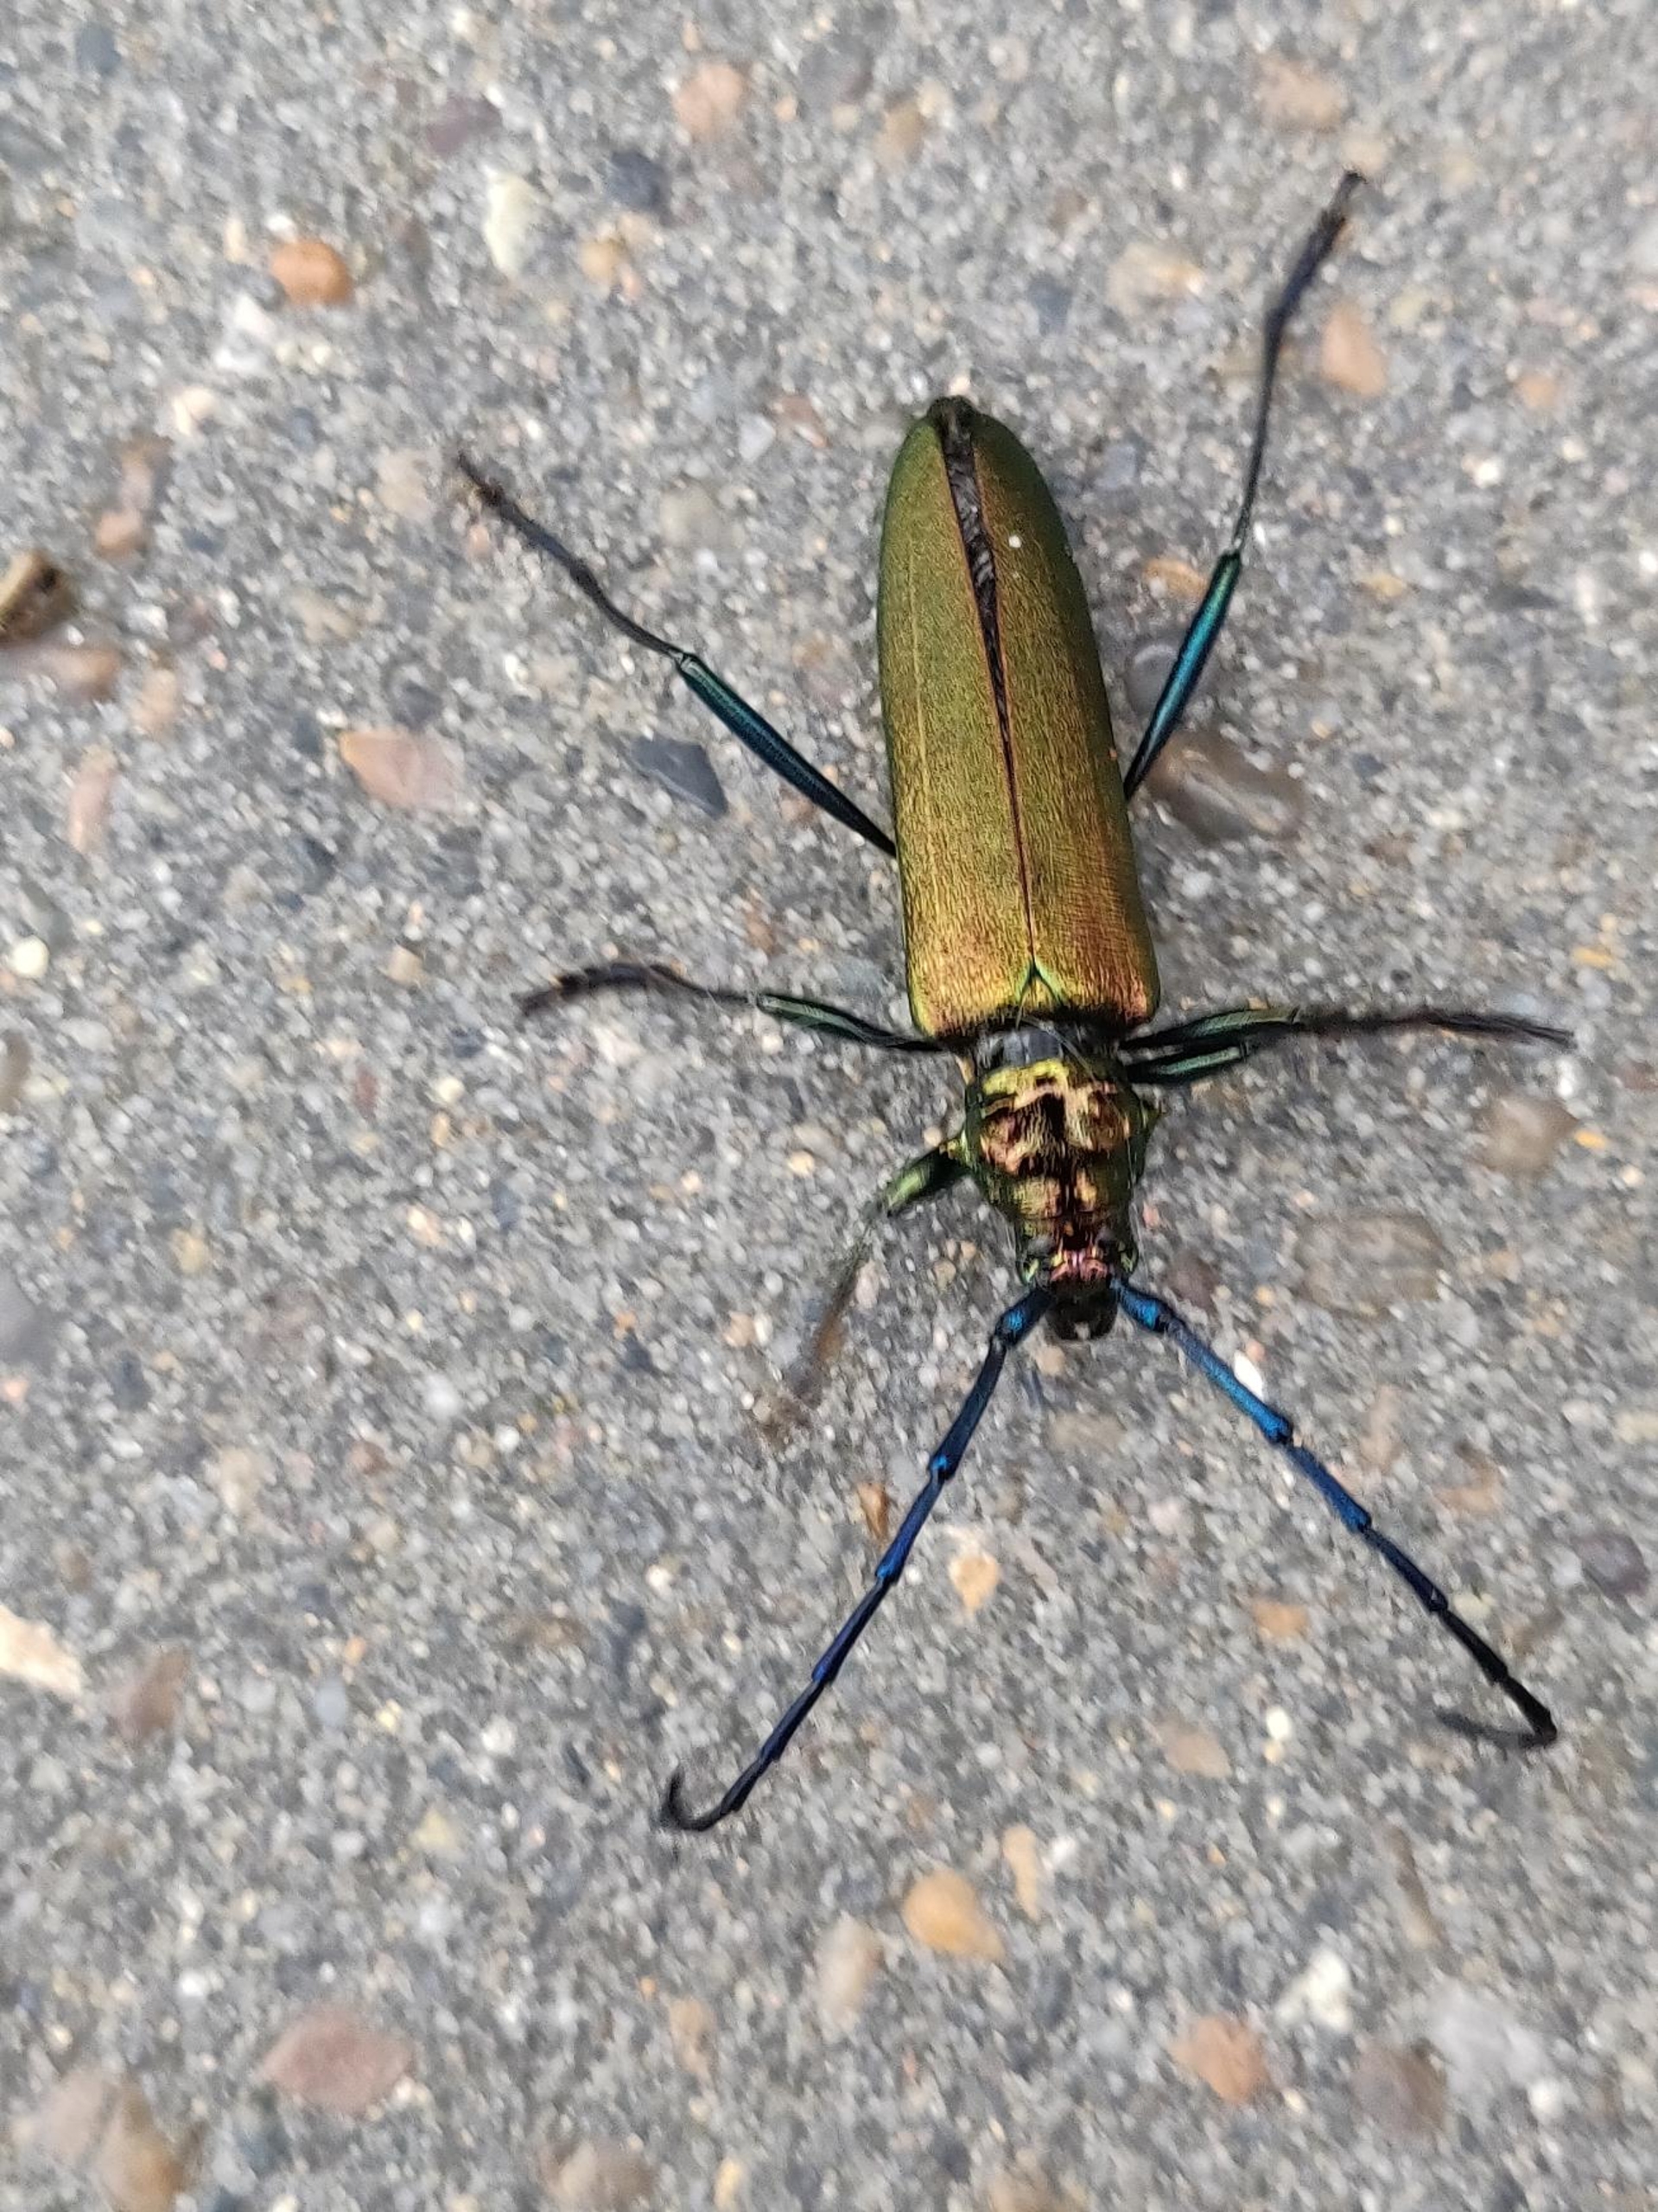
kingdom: Animalia
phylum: Arthropoda
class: Insecta
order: Coleoptera
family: Cerambycidae
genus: Aromia
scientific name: Aromia moschata
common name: Moskusbuk
